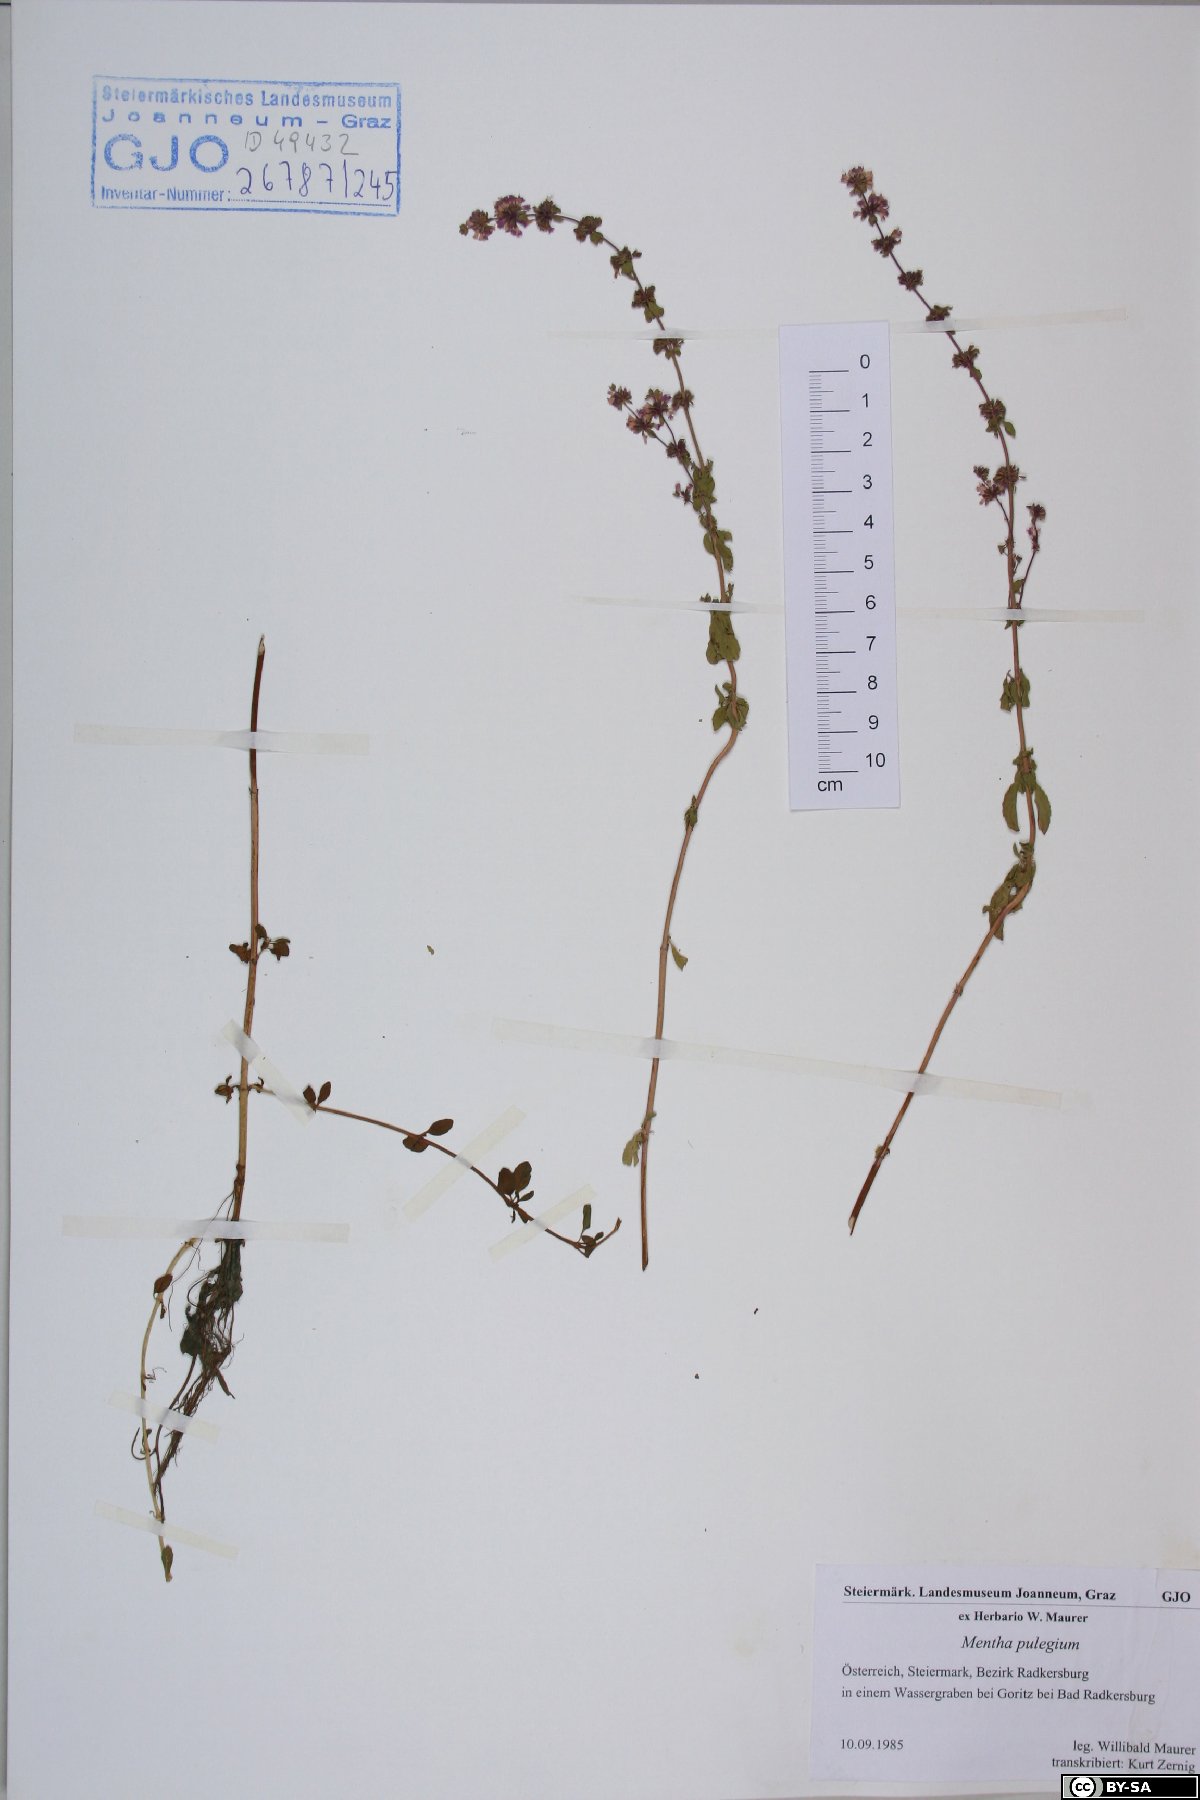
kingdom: Plantae
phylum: Tracheophyta
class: Magnoliopsida
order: Lamiales
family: Lamiaceae
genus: Mentha
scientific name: Mentha pulegium
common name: Pennyroyal
